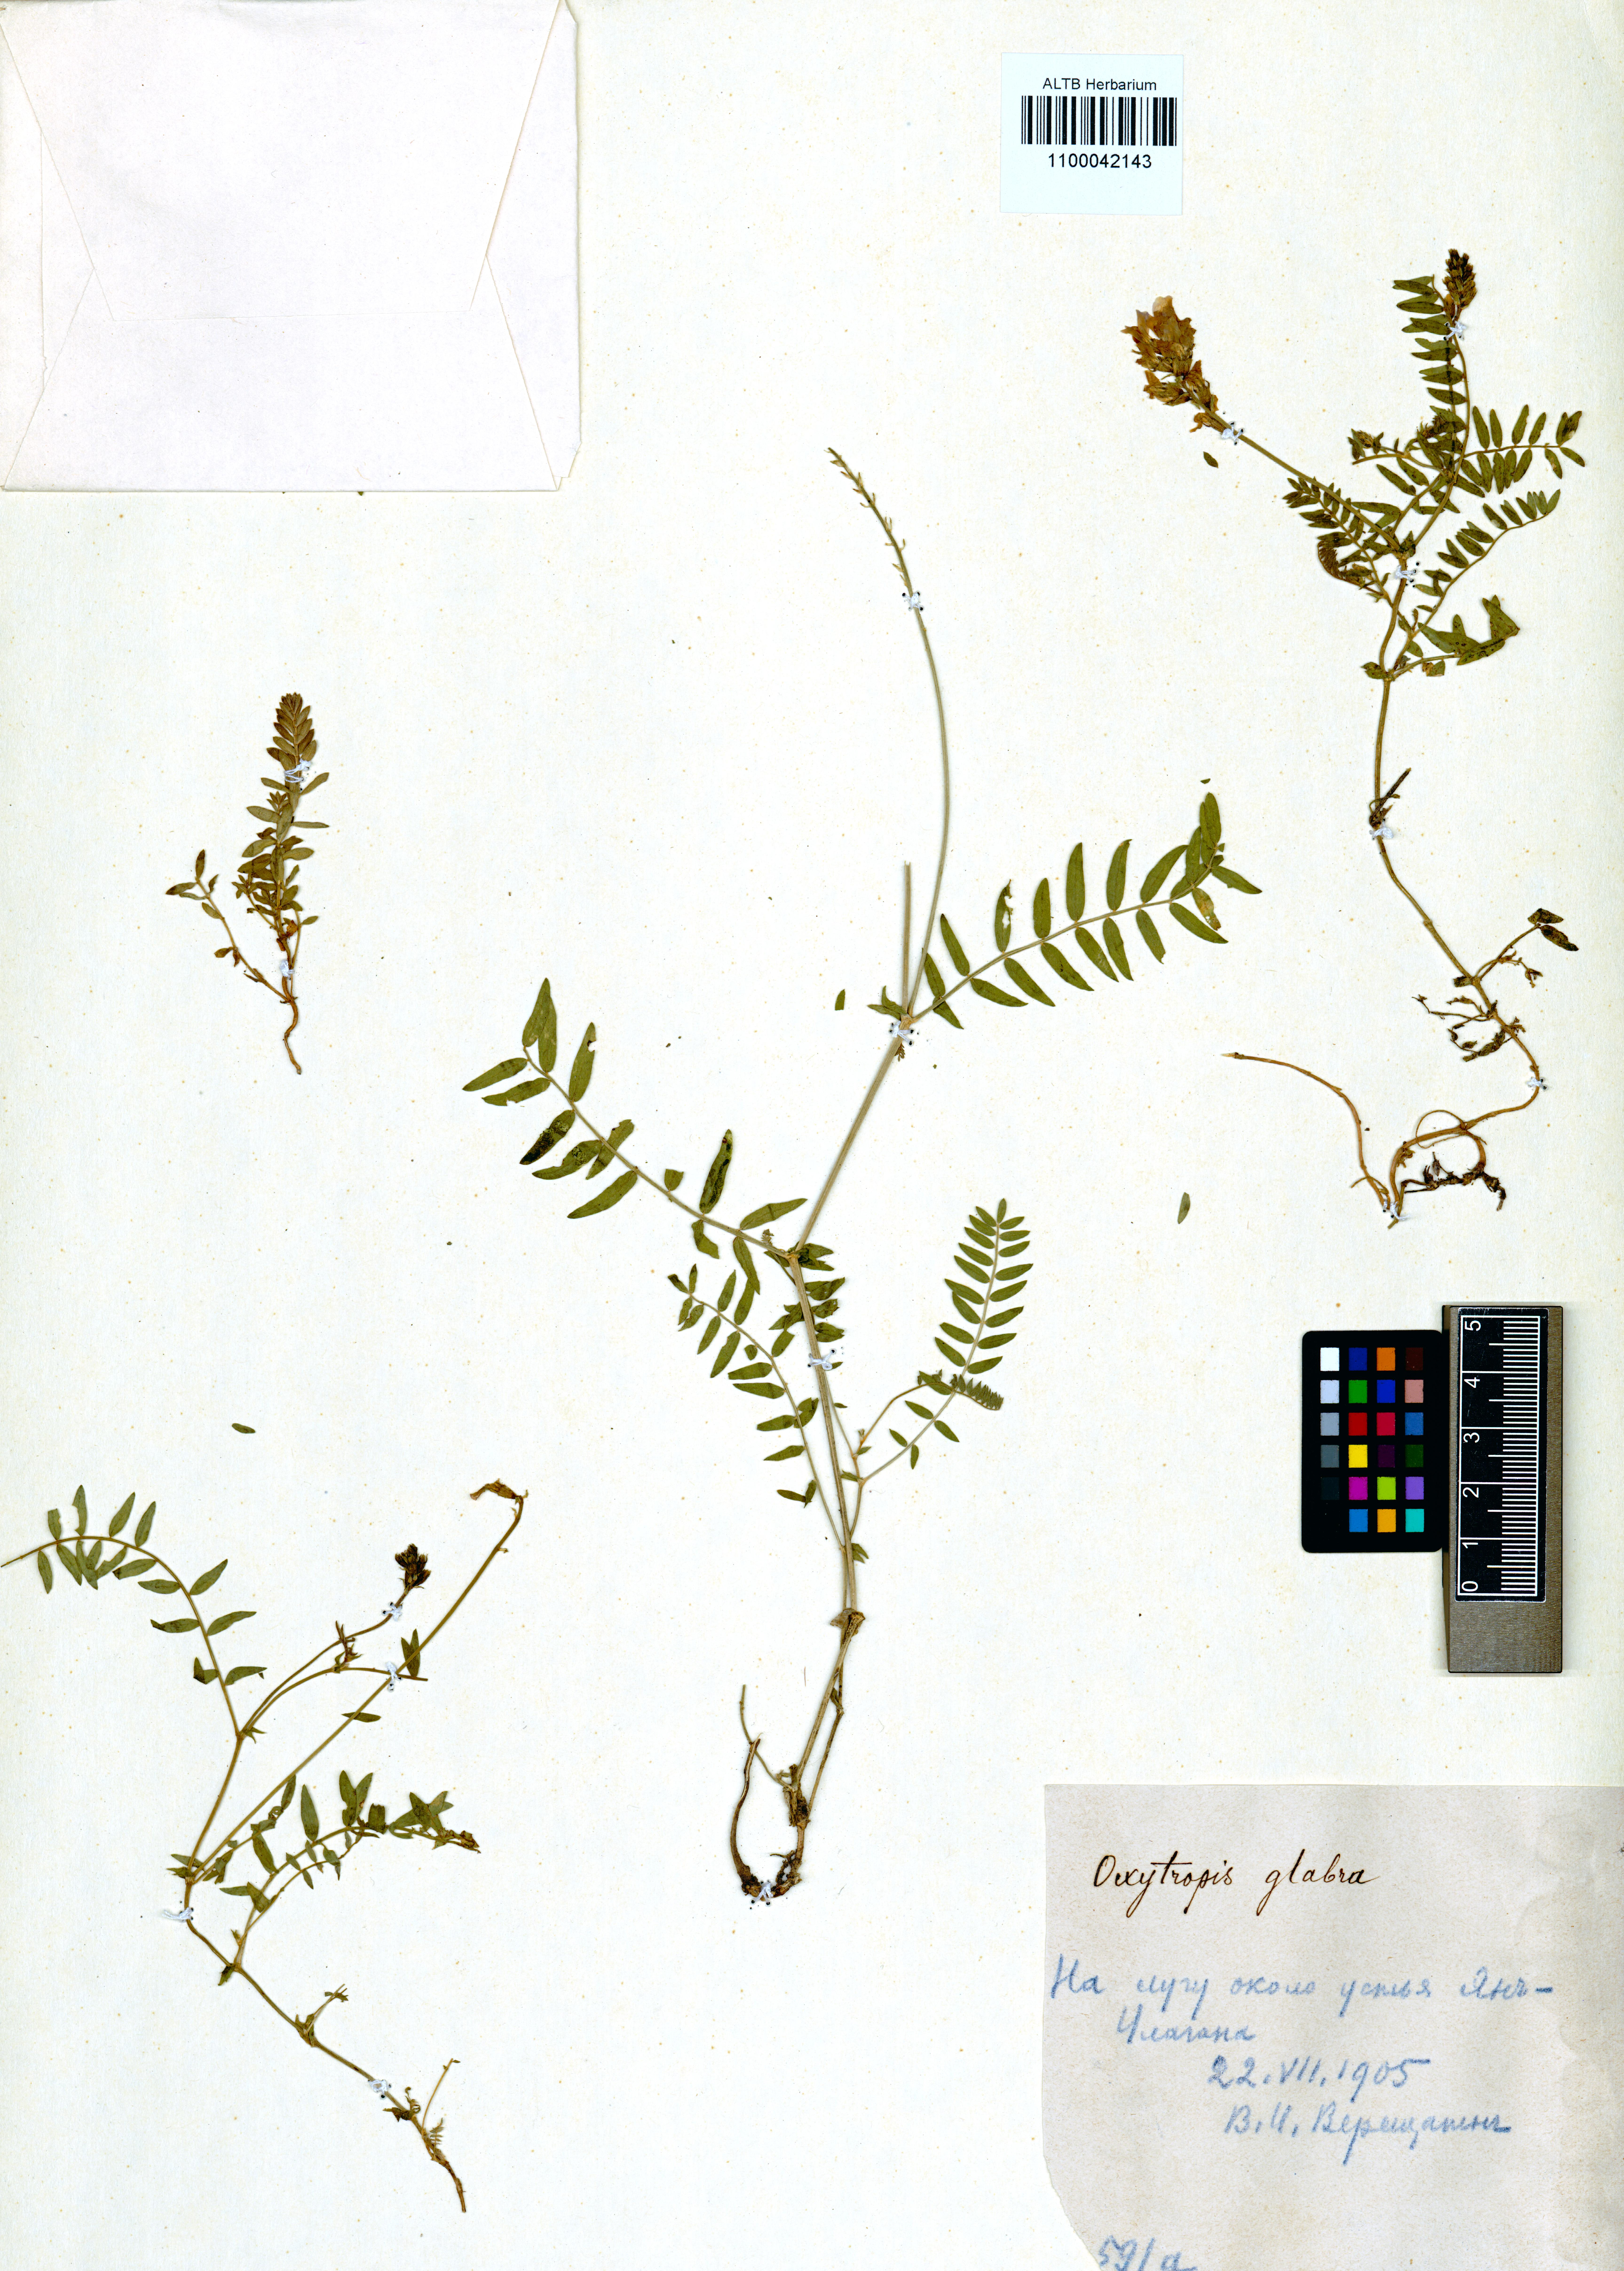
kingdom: Plantae
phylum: Tracheophyta
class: Magnoliopsida
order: Fabales
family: Fabaceae
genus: Oxytropis
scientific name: Oxytropis glabra
